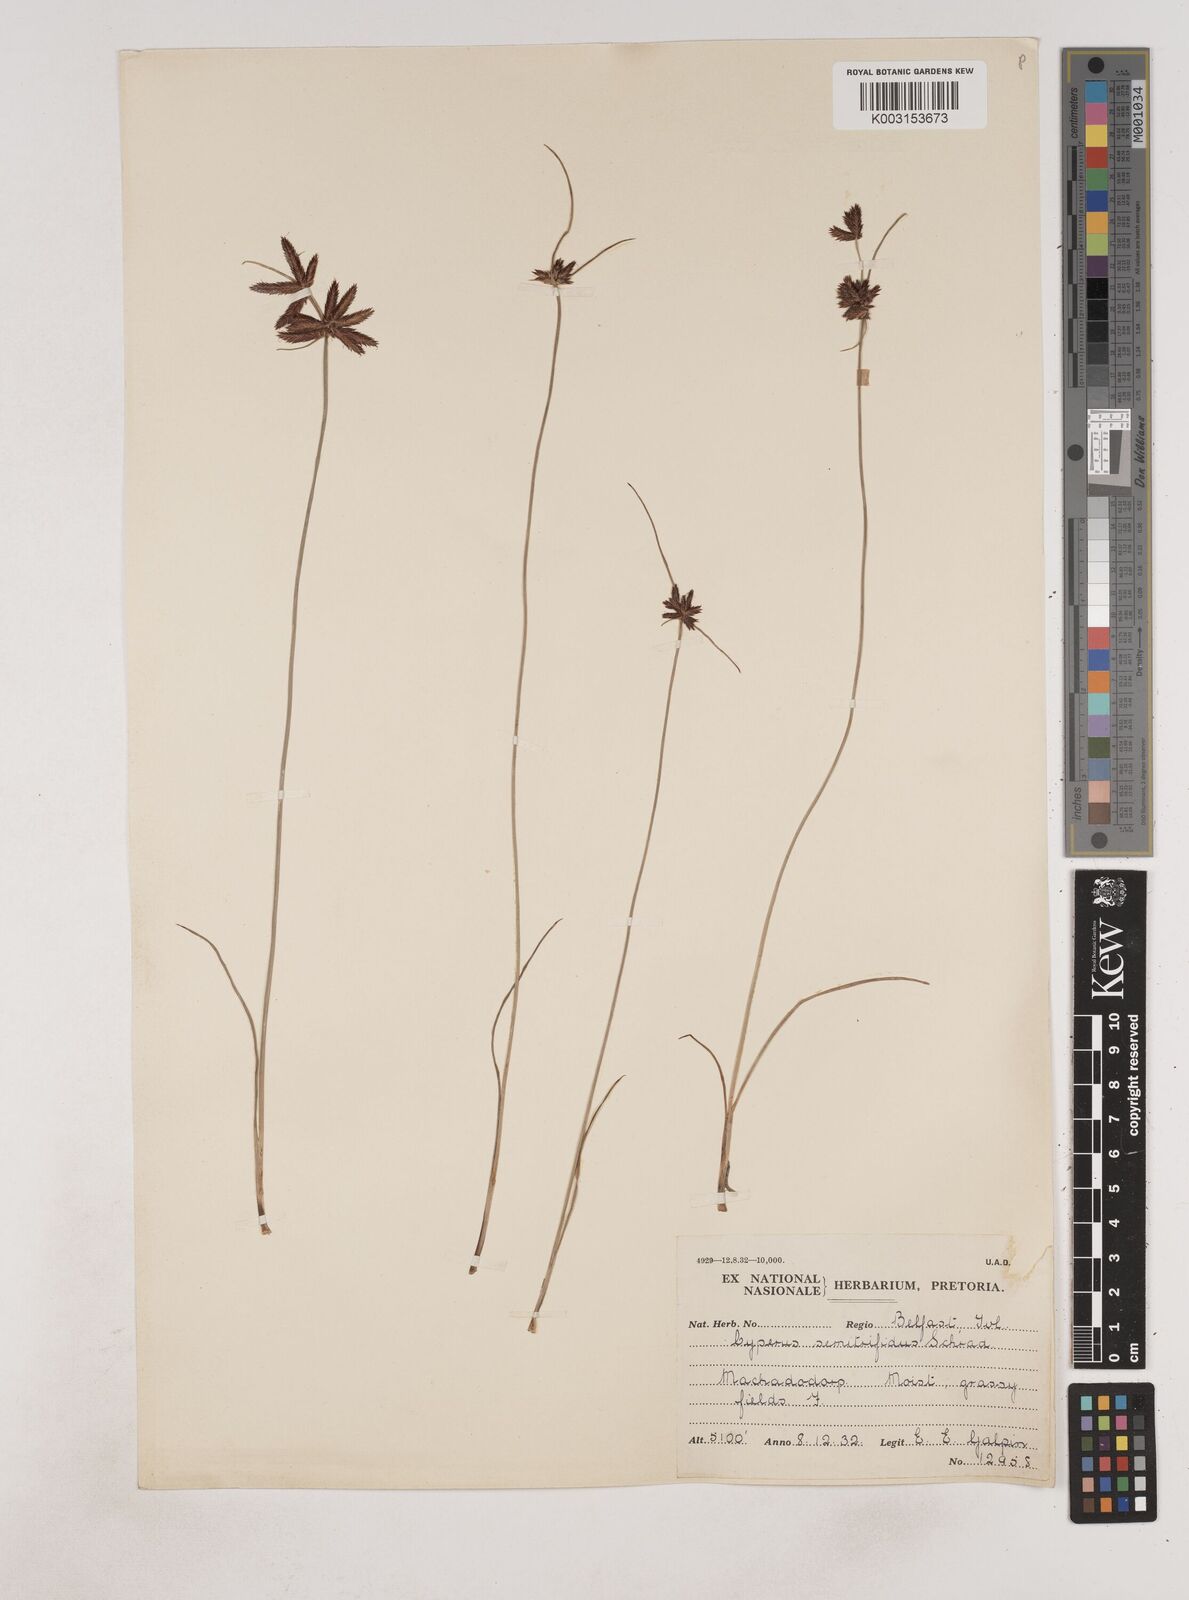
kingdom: Plantae
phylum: Tracheophyta
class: Liliopsida
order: Poales
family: Cyperaceae
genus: Cyperus
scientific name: Cyperus semitrifidus
